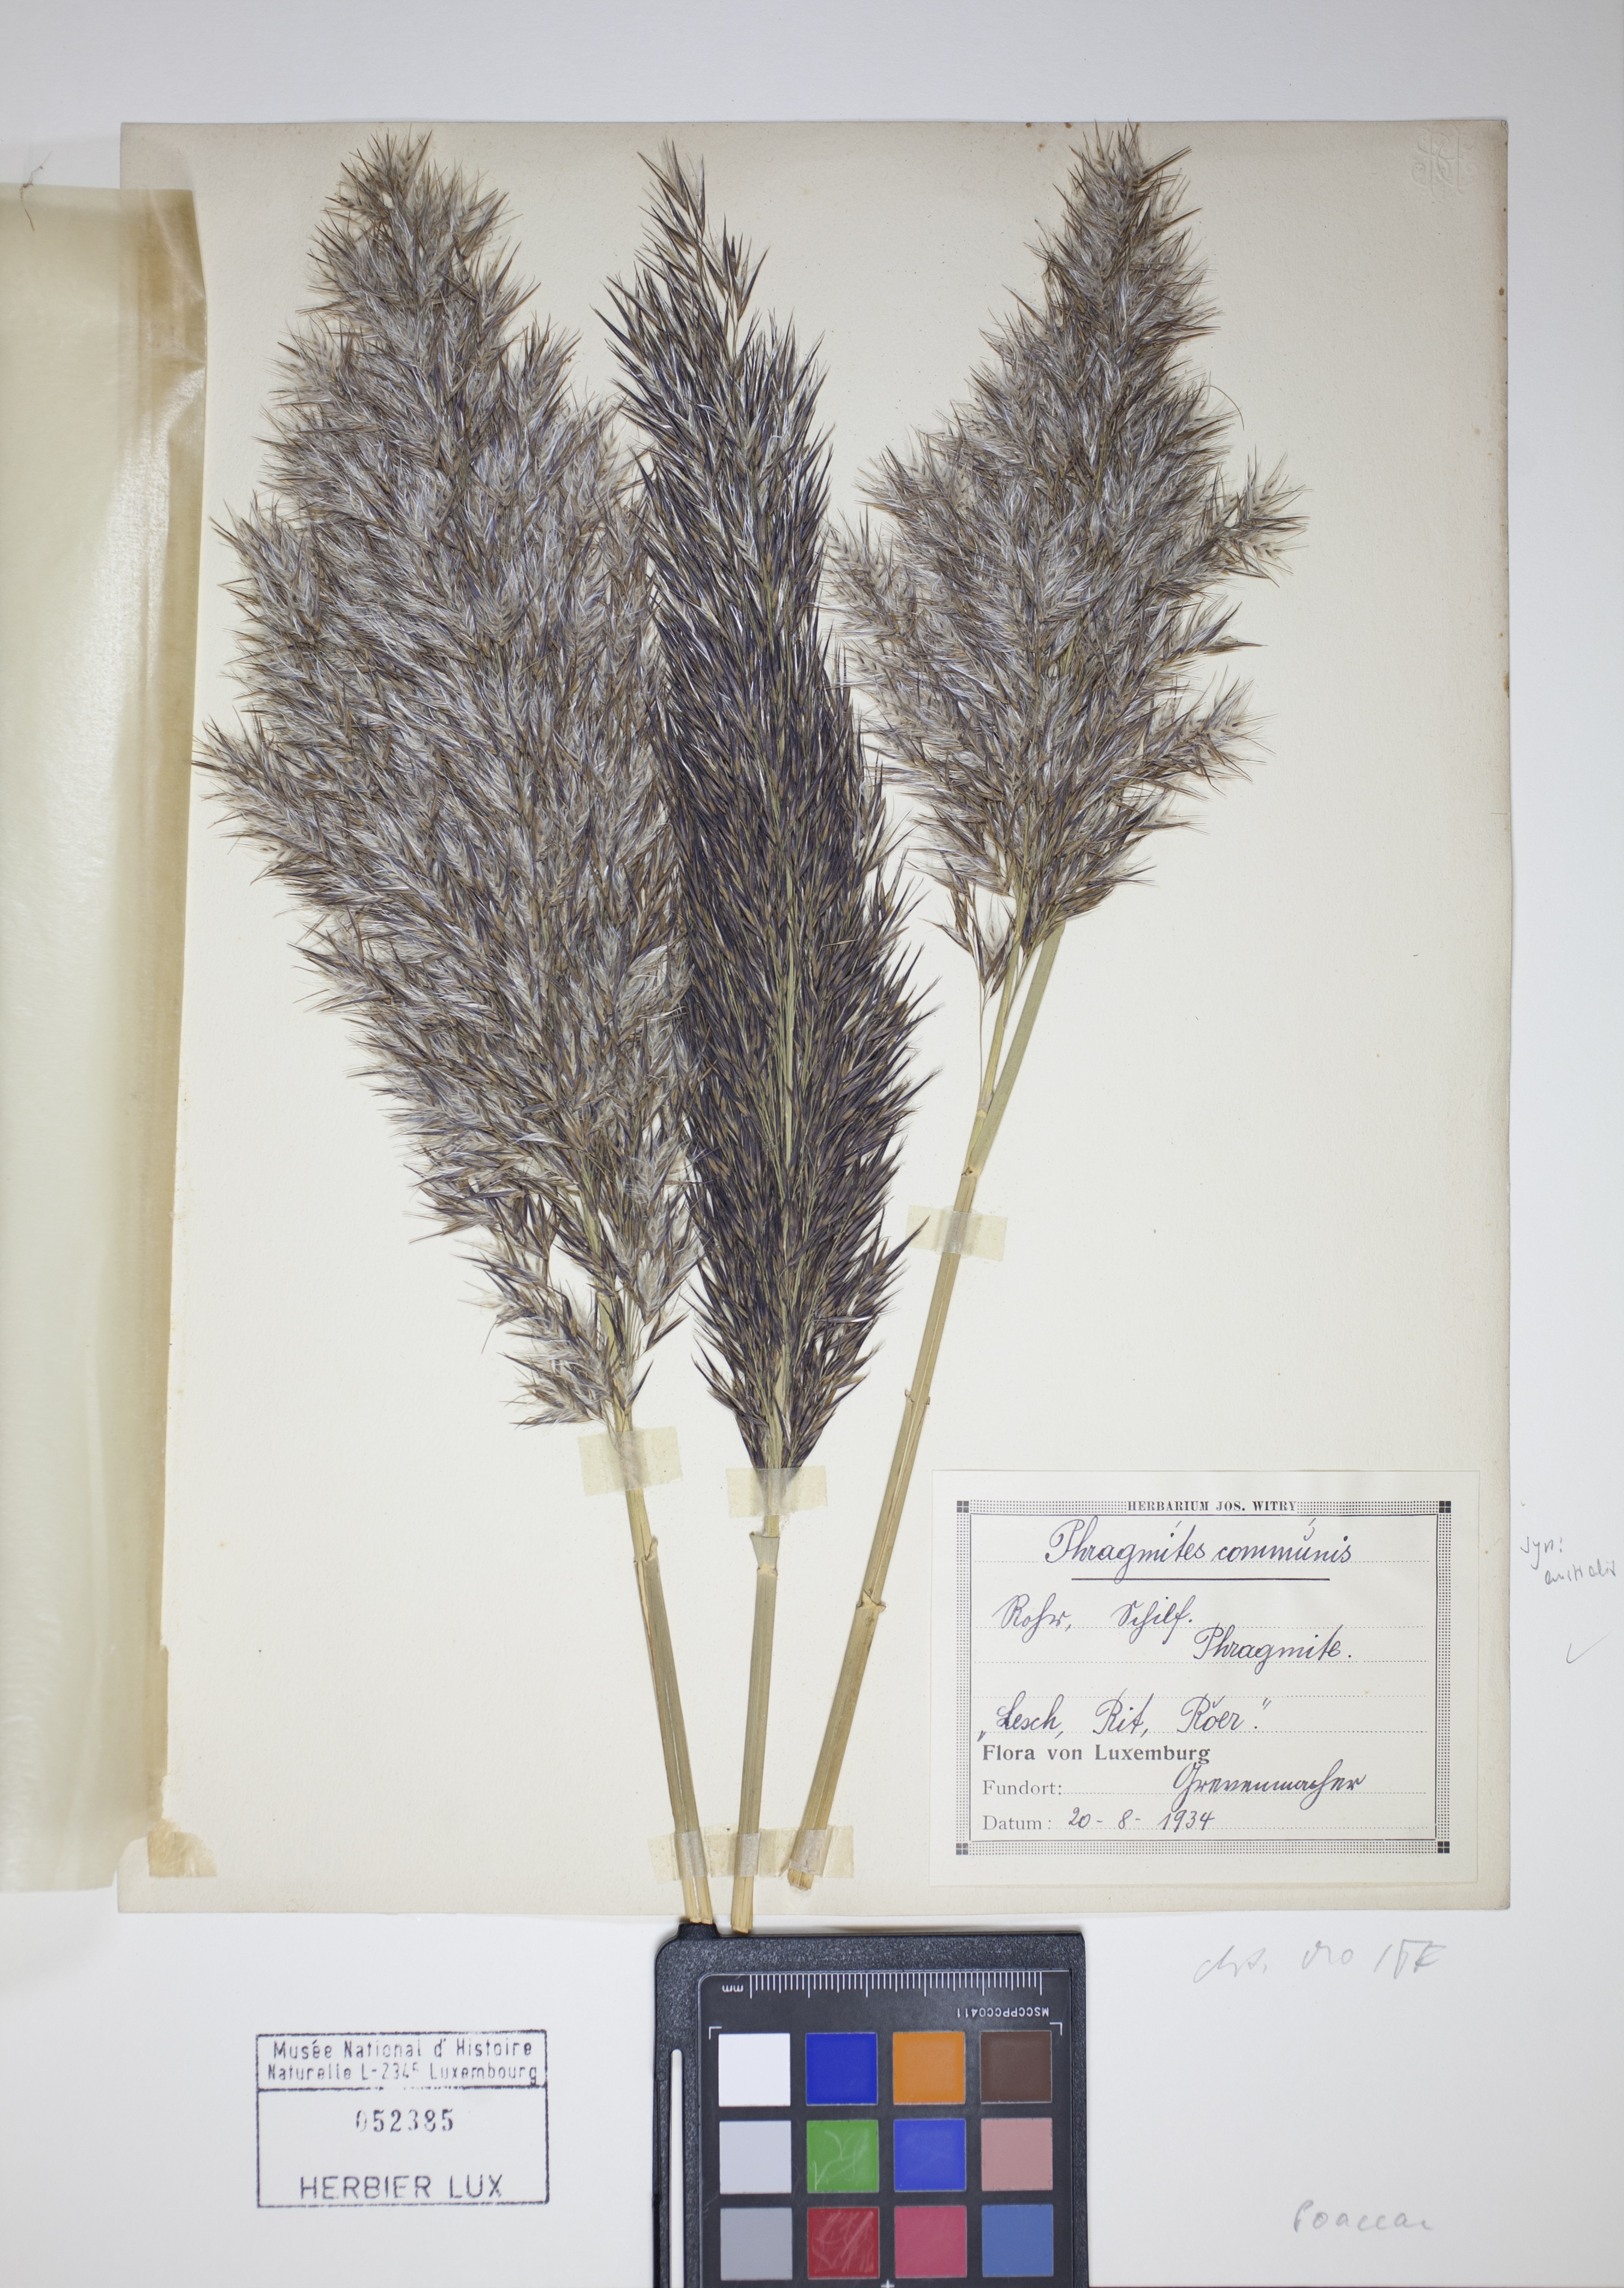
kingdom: Plantae
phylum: Tracheophyta
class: Liliopsida
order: Poales
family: Poaceae
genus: Phragmites
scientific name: Phragmites australis
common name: Common reed
